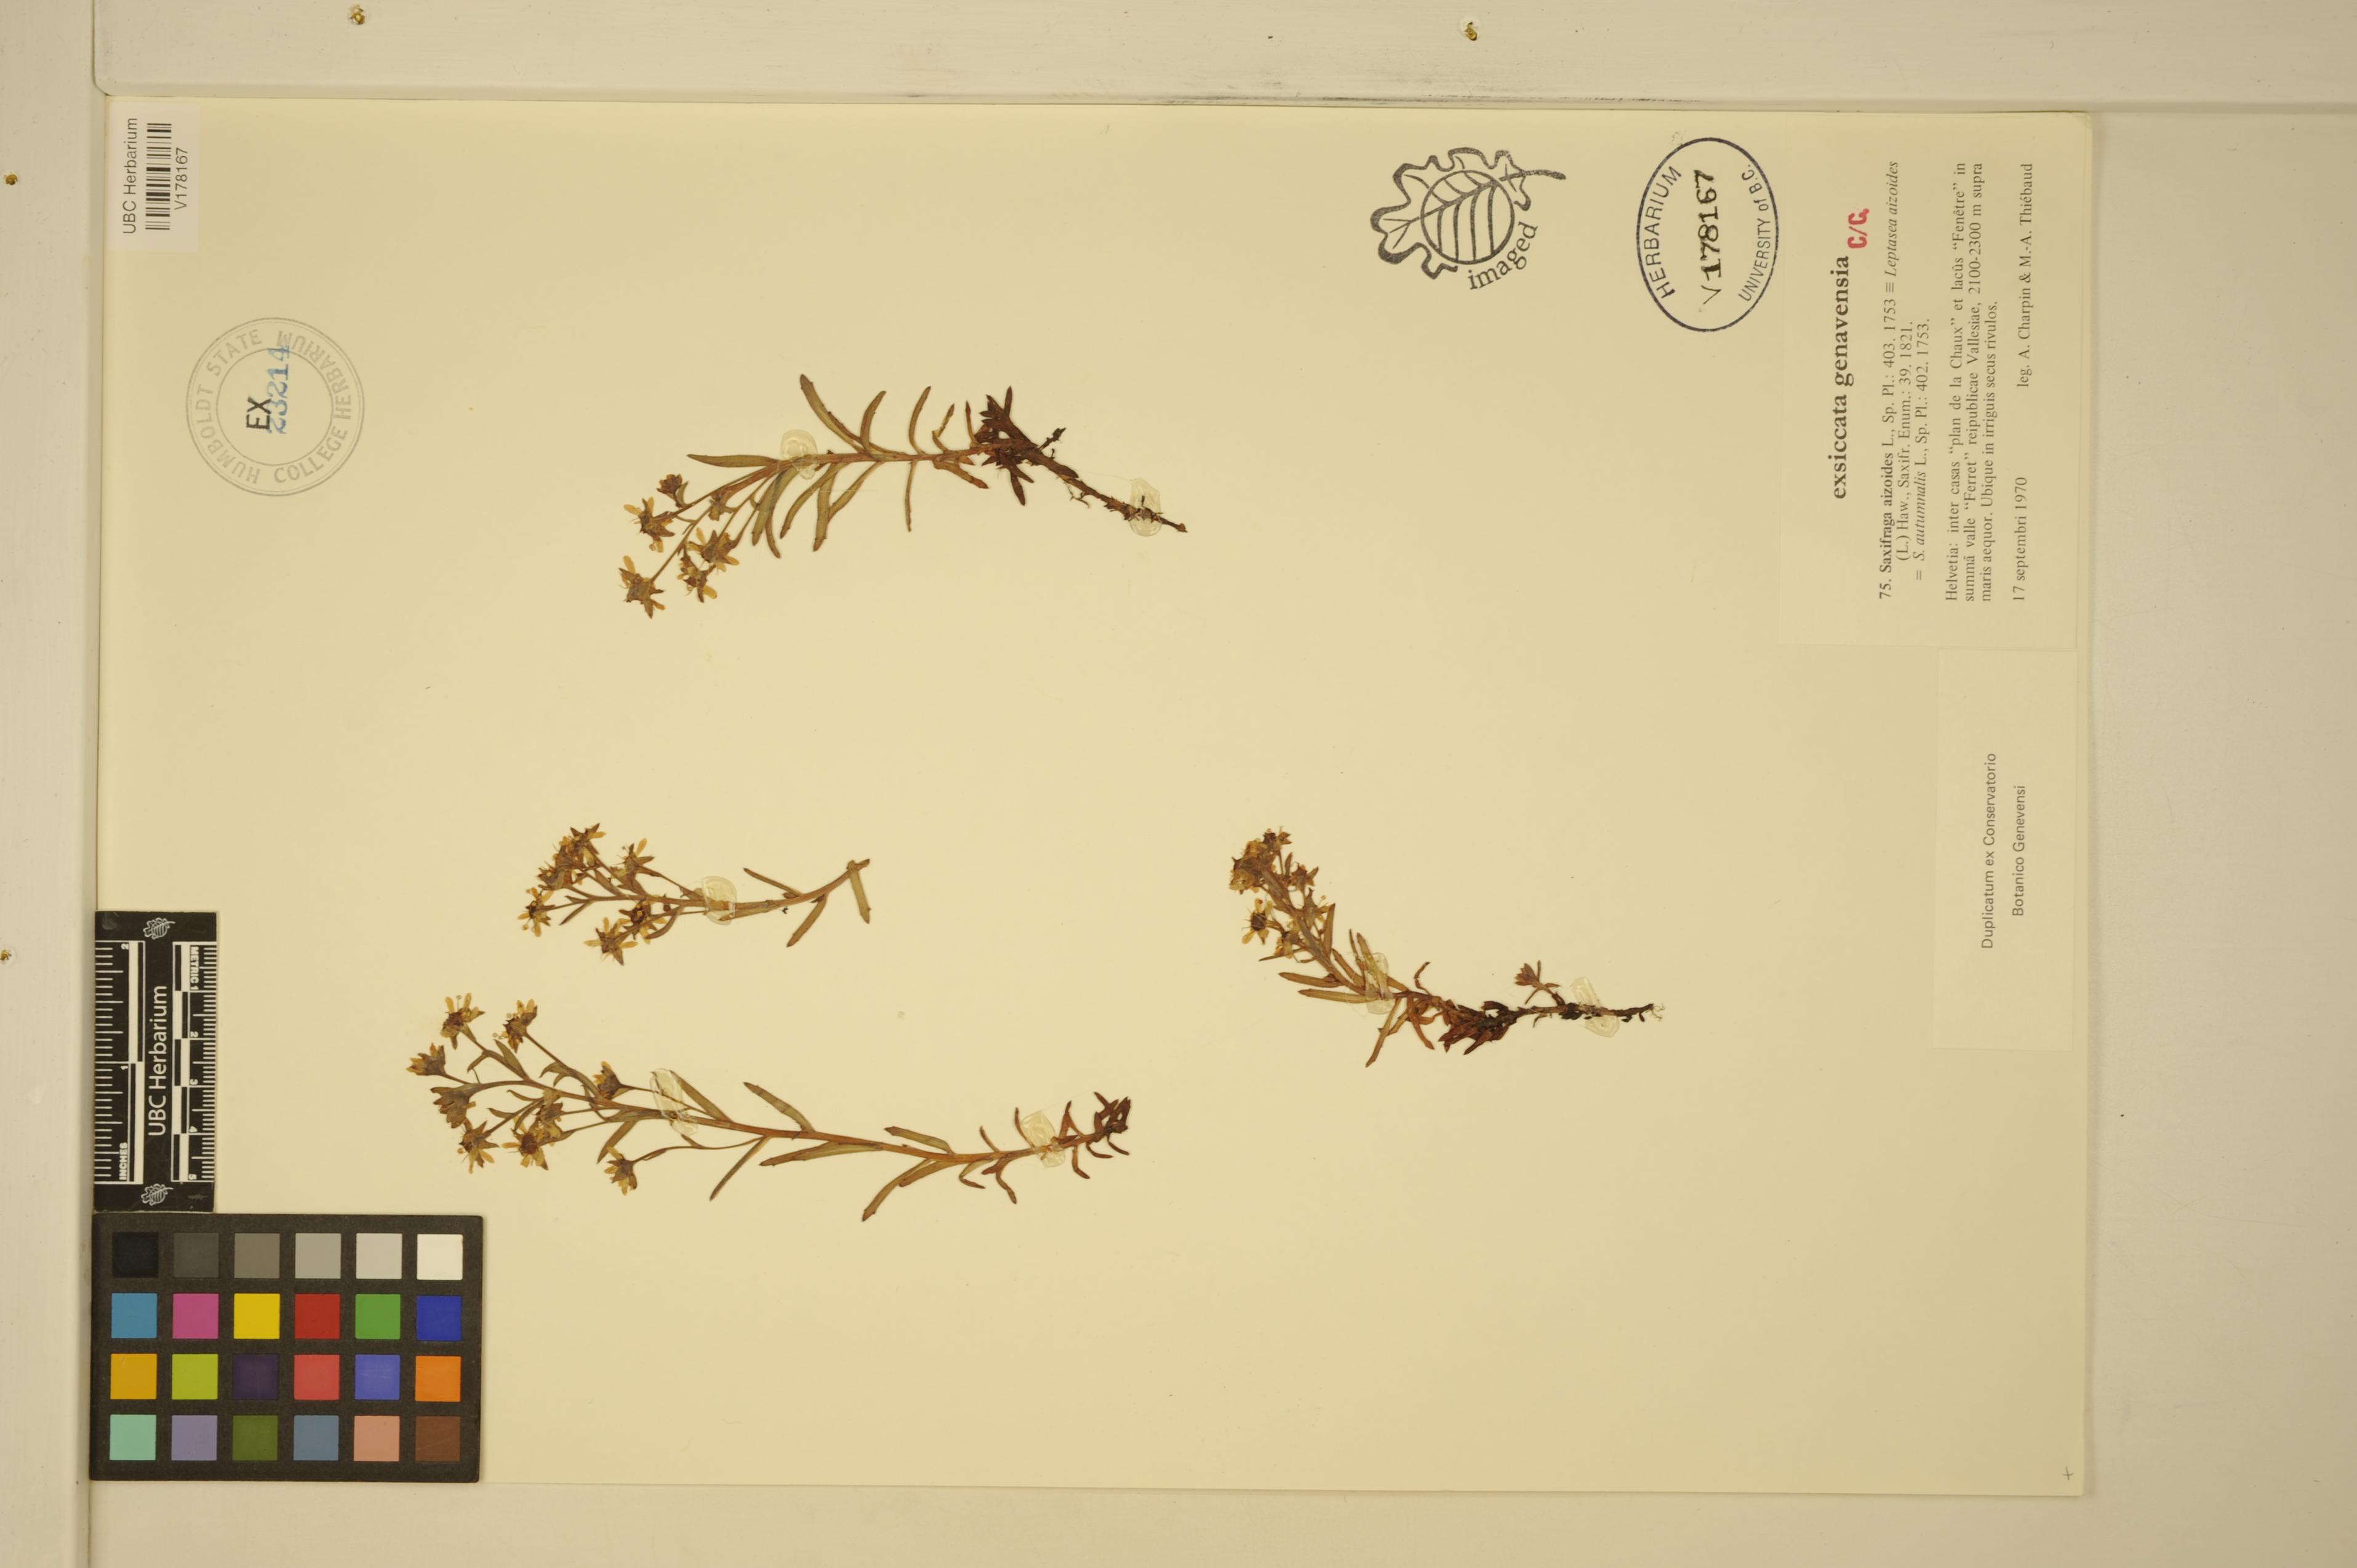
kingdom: Plantae
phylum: Tracheophyta
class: Magnoliopsida
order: Saxifragales
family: Saxifragaceae
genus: Saxifraga
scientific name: Saxifraga aizoides
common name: Yellow mountain saxifrage
